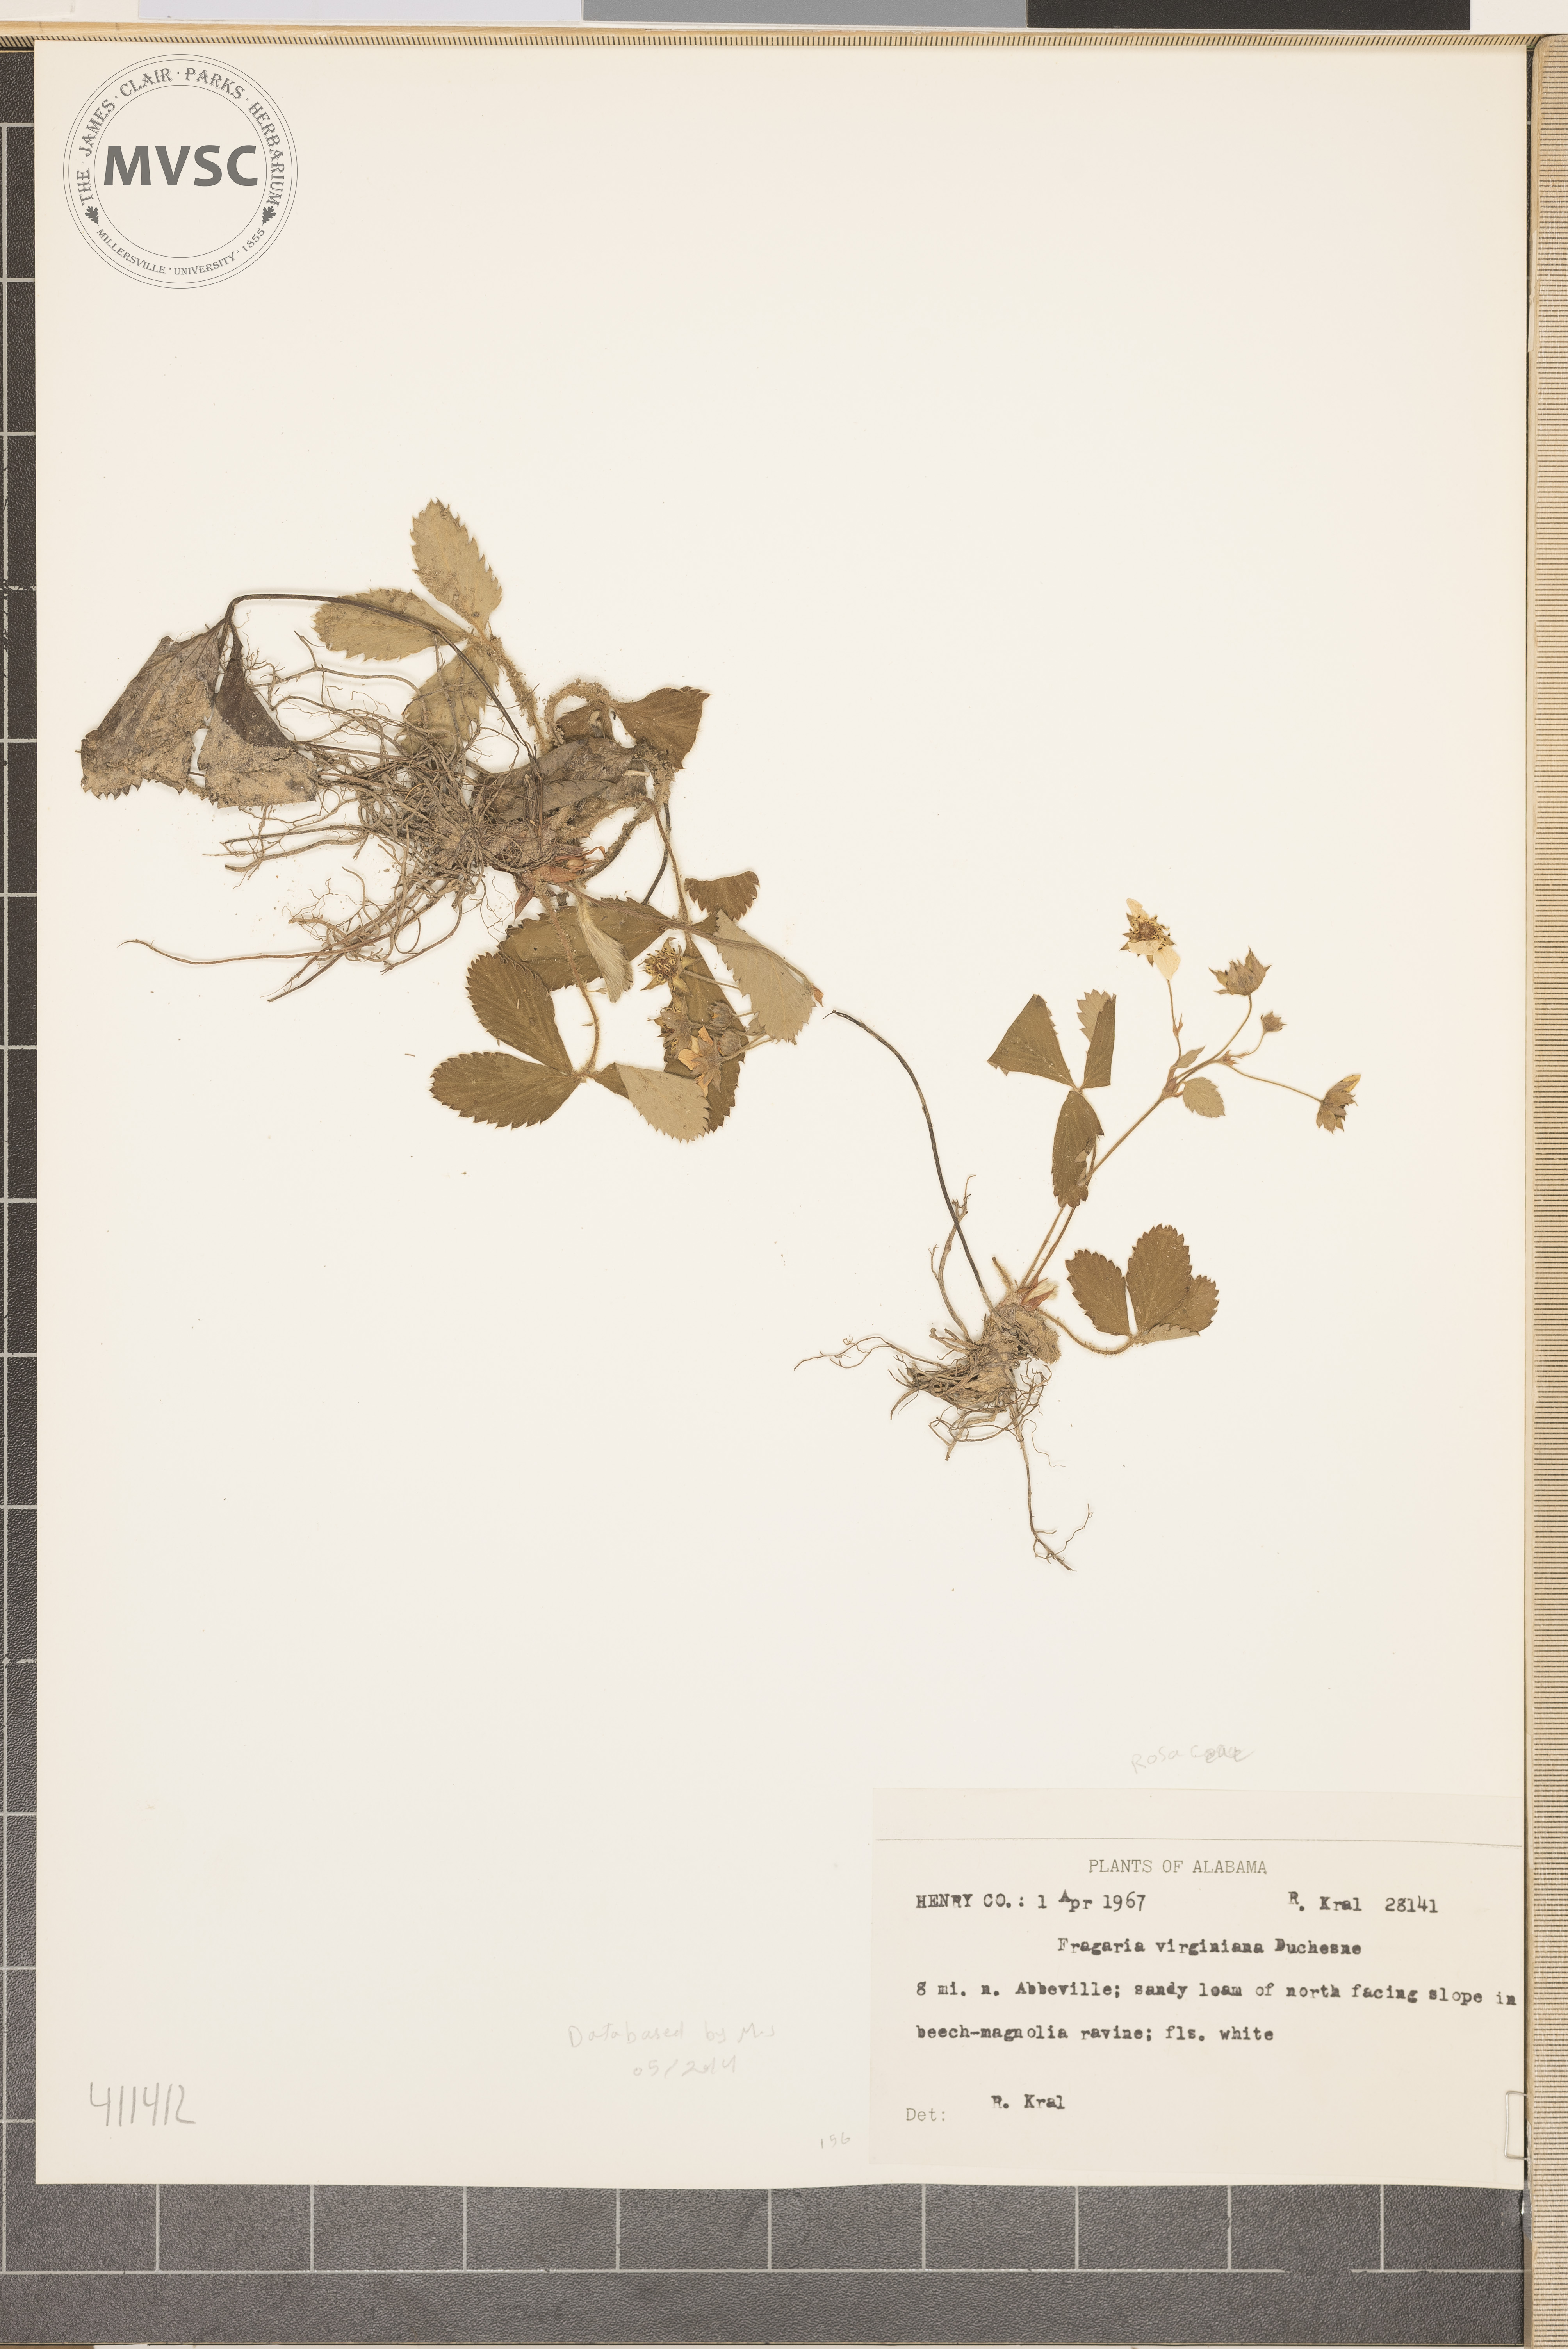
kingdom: Plantae
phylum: Tracheophyta
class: Magnoliopsida
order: Rosales
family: Rosaceae
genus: Fragaria
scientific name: Fragaria virginiana
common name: Thickleaved wild strawberry
